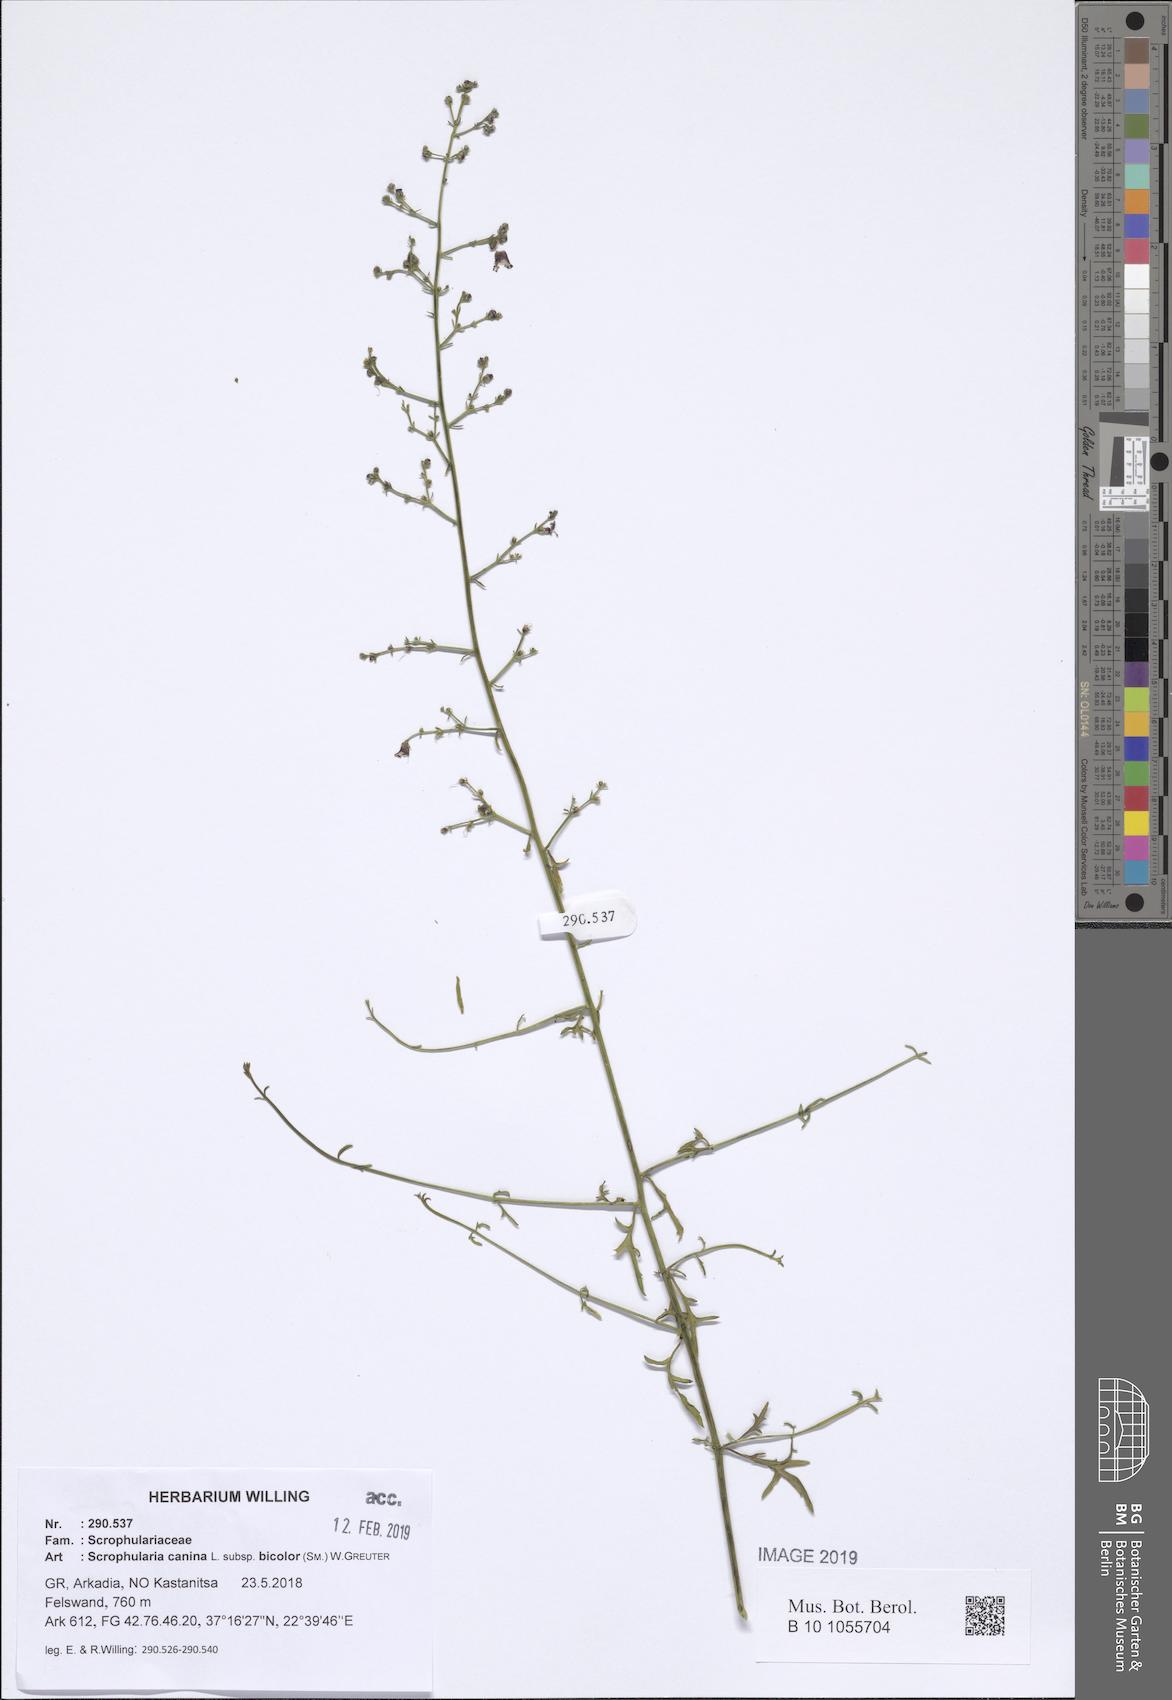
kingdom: Plantae
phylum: Tracheophyta
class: Magnoliopsida
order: Lamiales
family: Scrophulariaceae
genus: Scrophularia
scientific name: Scrophularia canina
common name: French figwort
